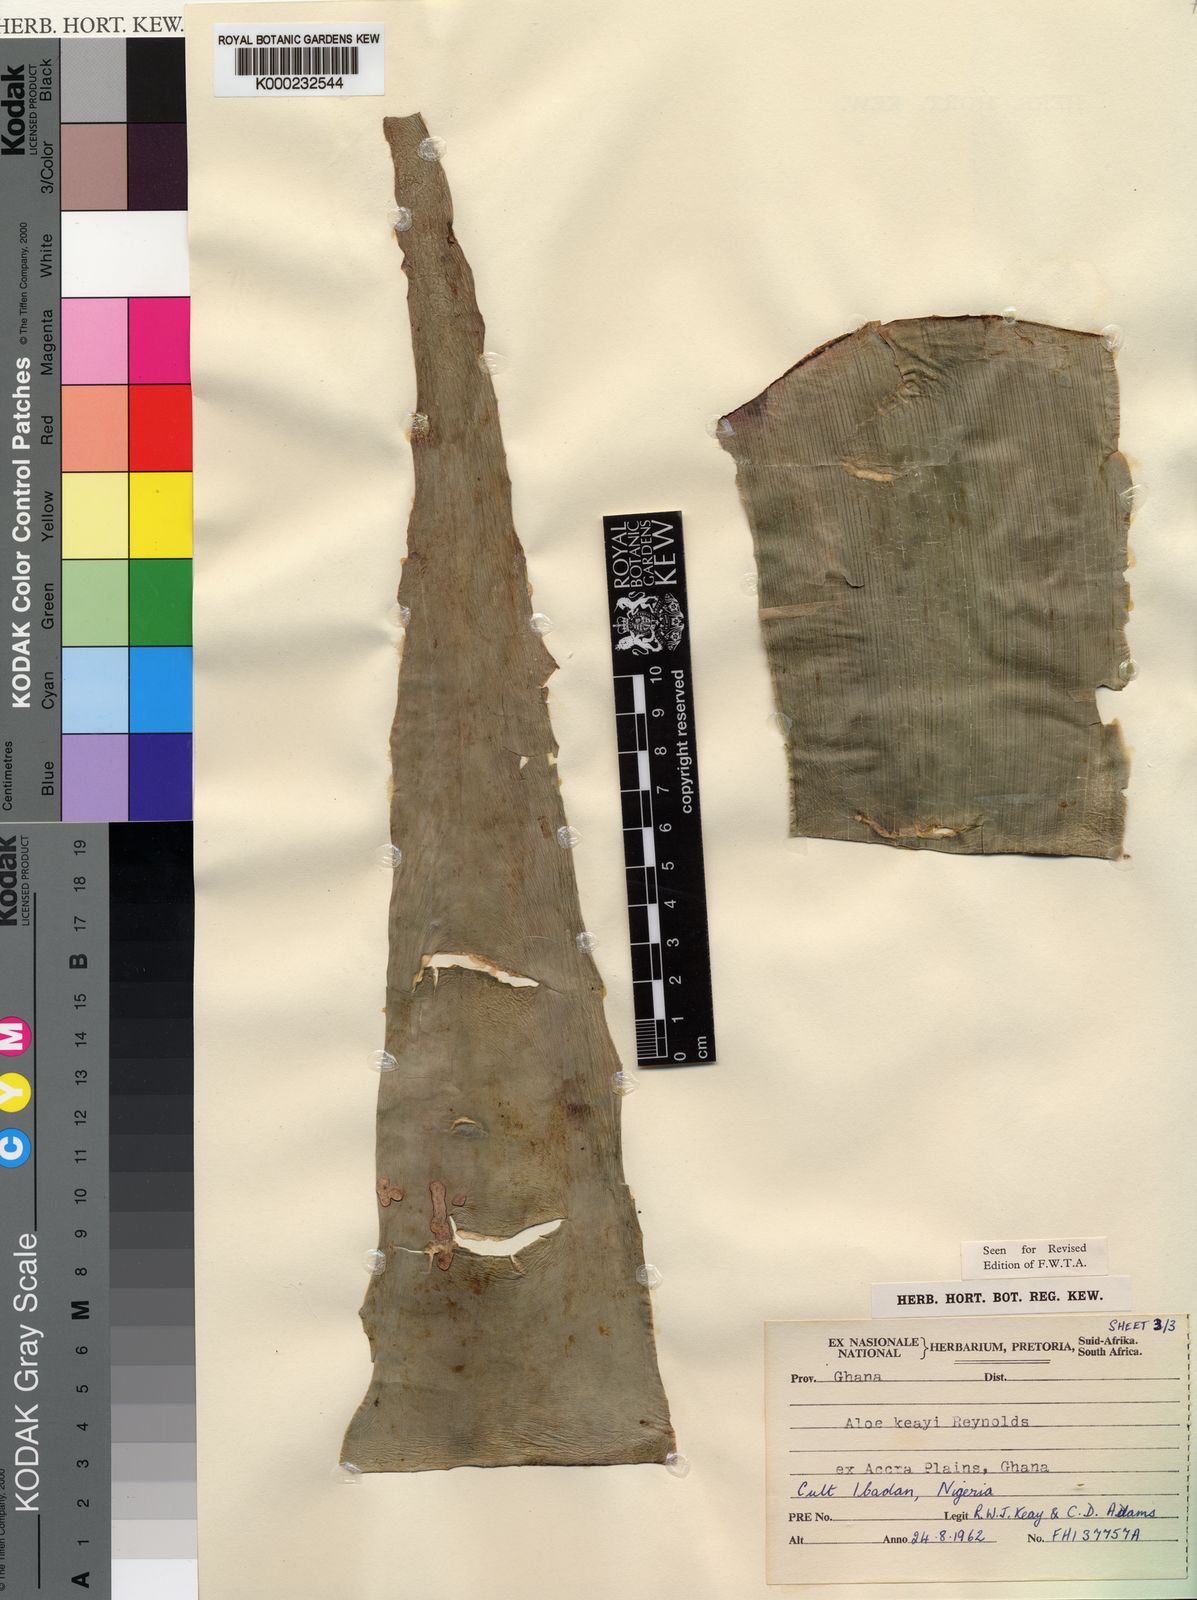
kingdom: Plantae
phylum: Tracheophyta
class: Liliopsida
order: Asparagales
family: Asphodelaceae
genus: Aloe
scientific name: Aloe keayi
